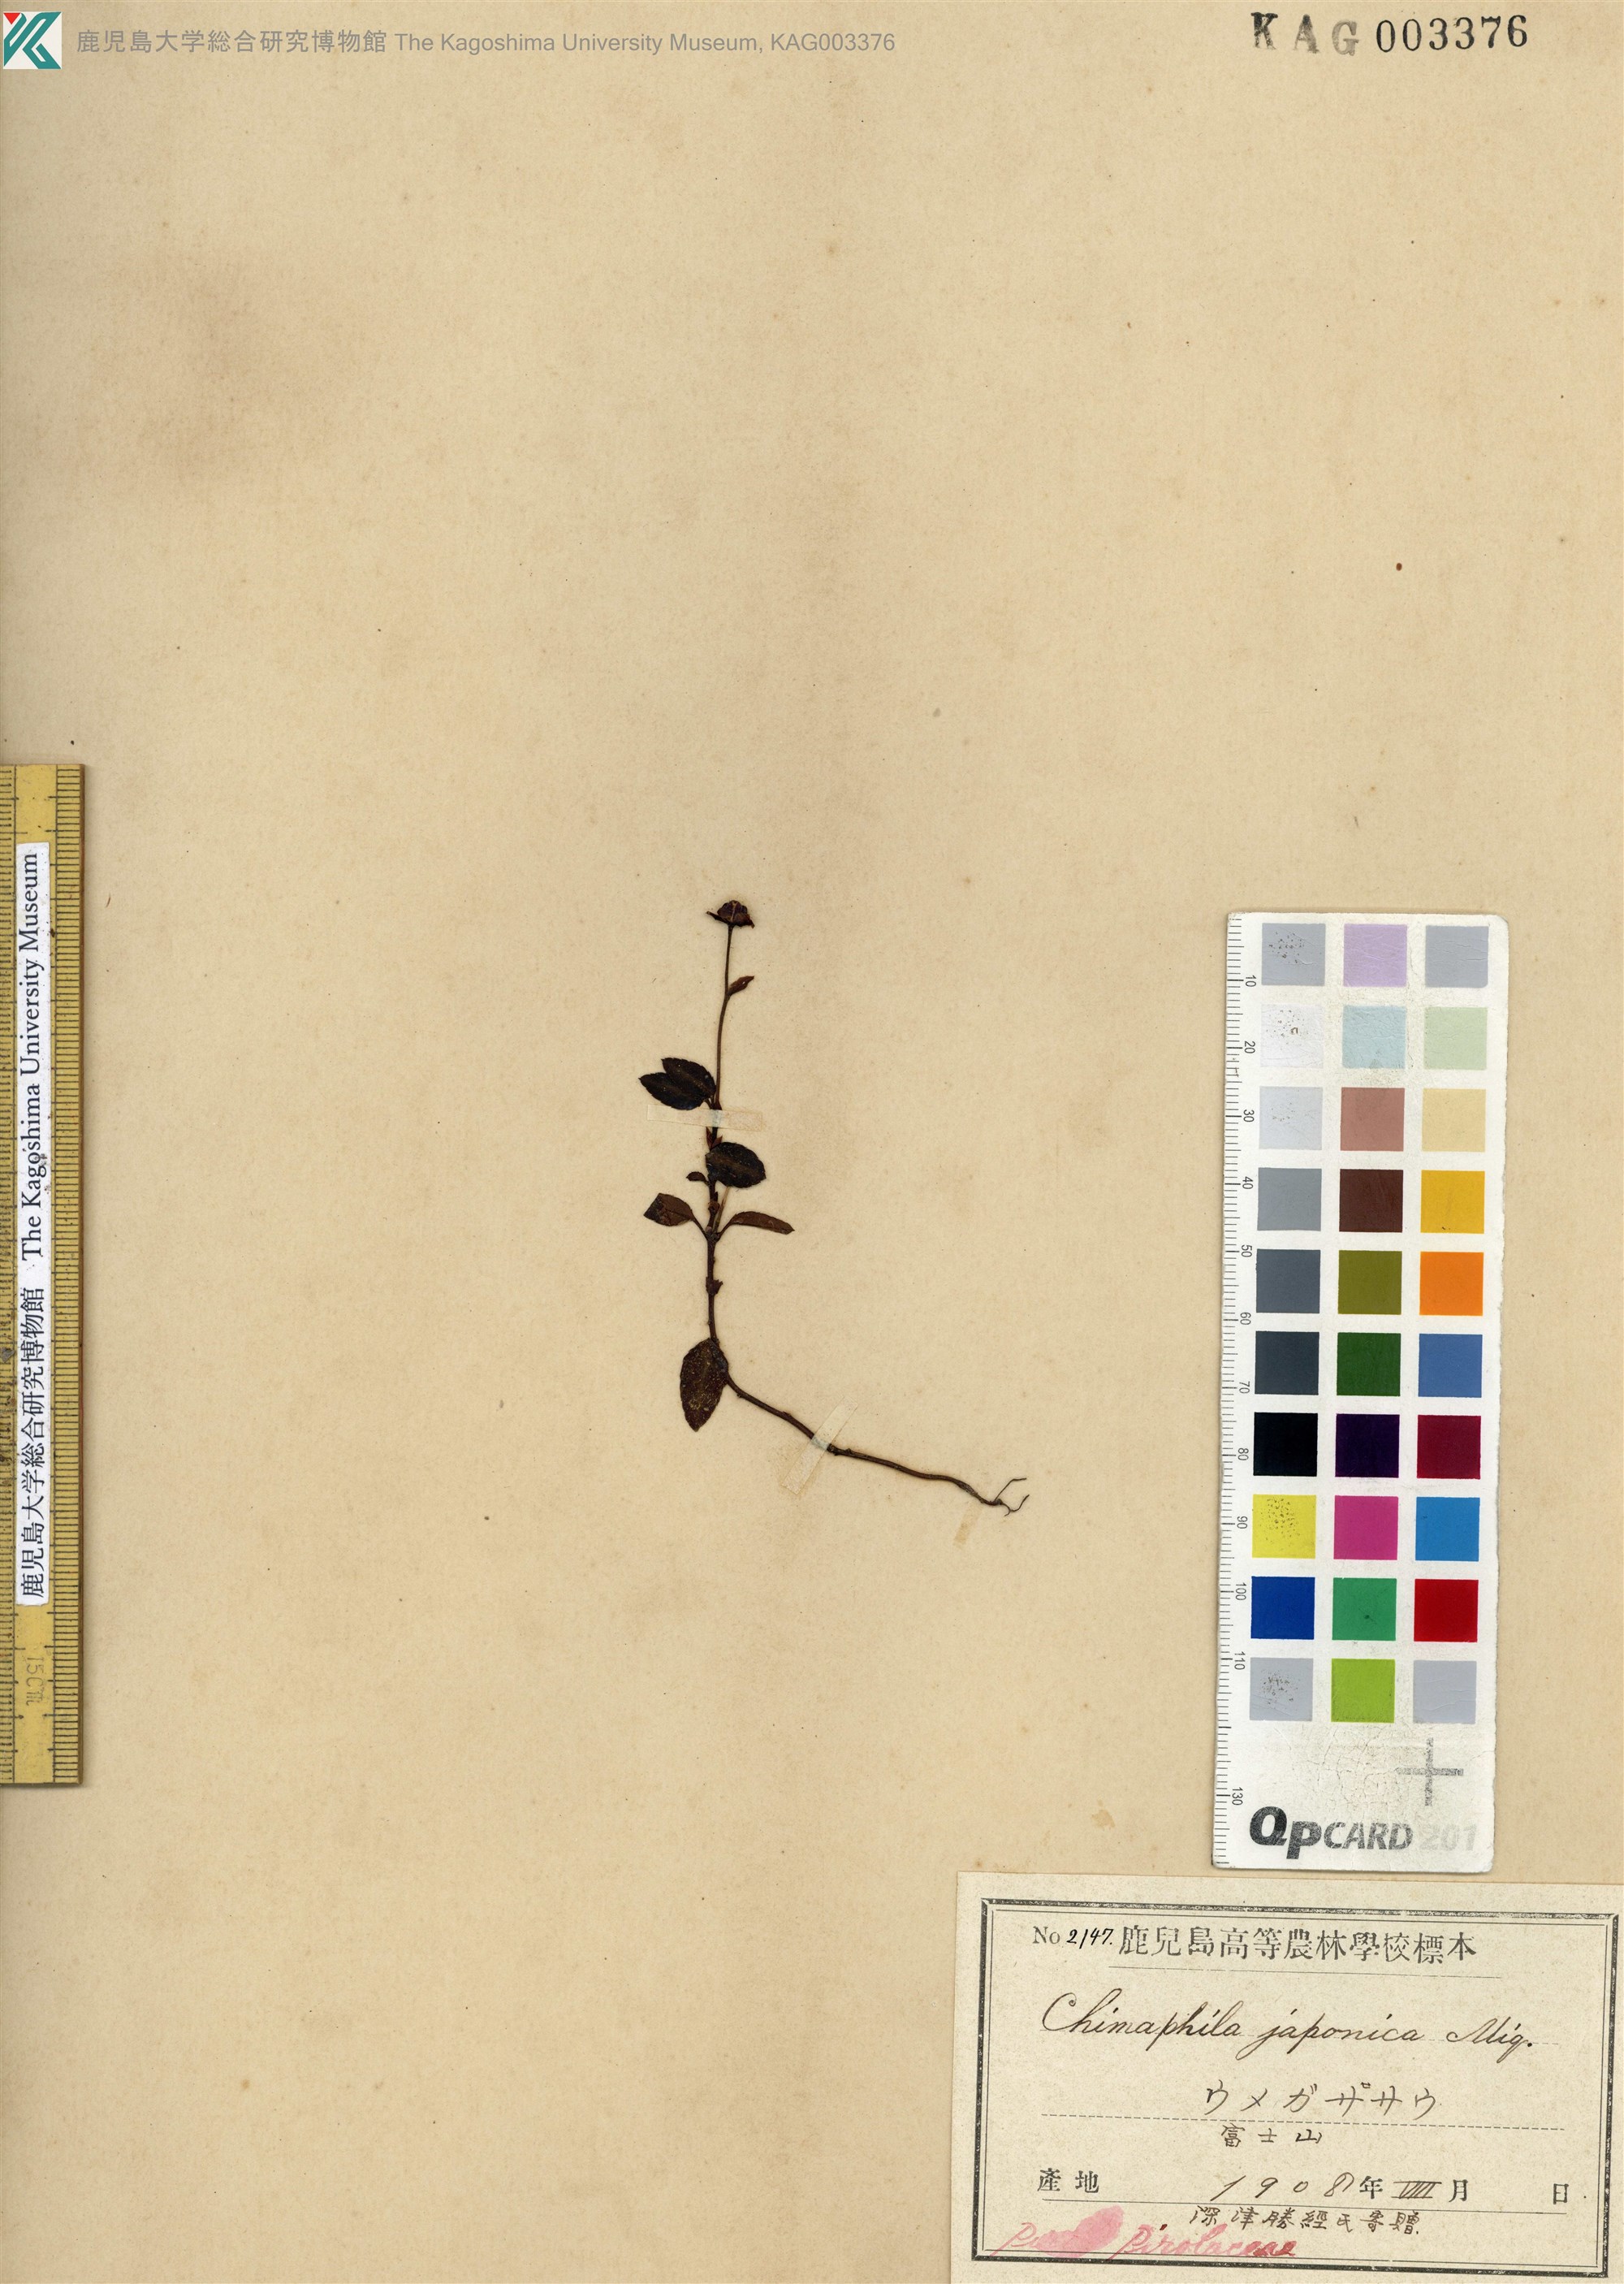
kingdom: Plantae
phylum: Tracheophyta
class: Magnoliopsida
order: Ericales
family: Ericaceae
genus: Chimaphila
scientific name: Chimaphila japonica
